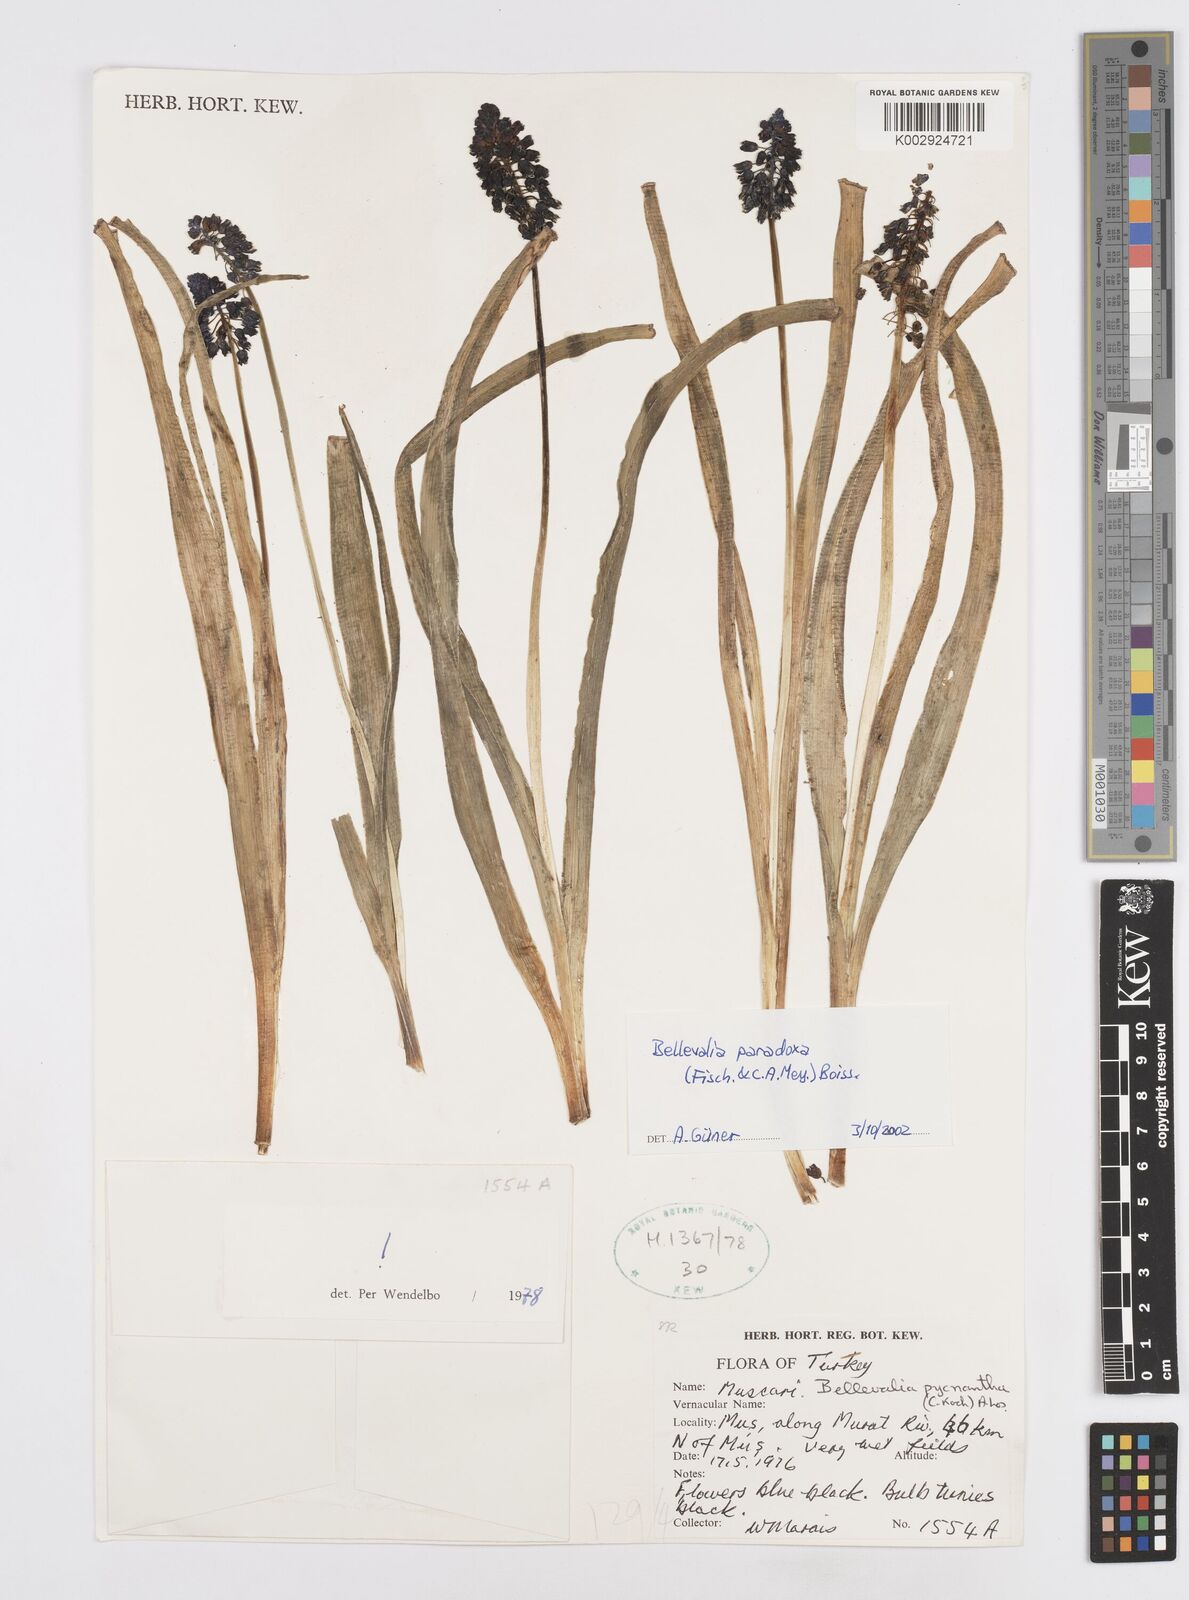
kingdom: Plantae
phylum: Tracheophyta
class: Liliopsida
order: Asparagales
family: Asparagaceae
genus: Bellevalia
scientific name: Bellevalia paradoxa
